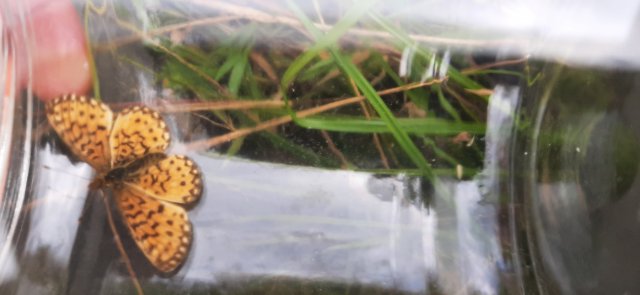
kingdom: Animalia
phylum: Arthropoda
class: Insecta
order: Lepidoptera
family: Nymphalidae
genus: Boloria
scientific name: Boloria selene
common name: Silver-bordered Fritillary
